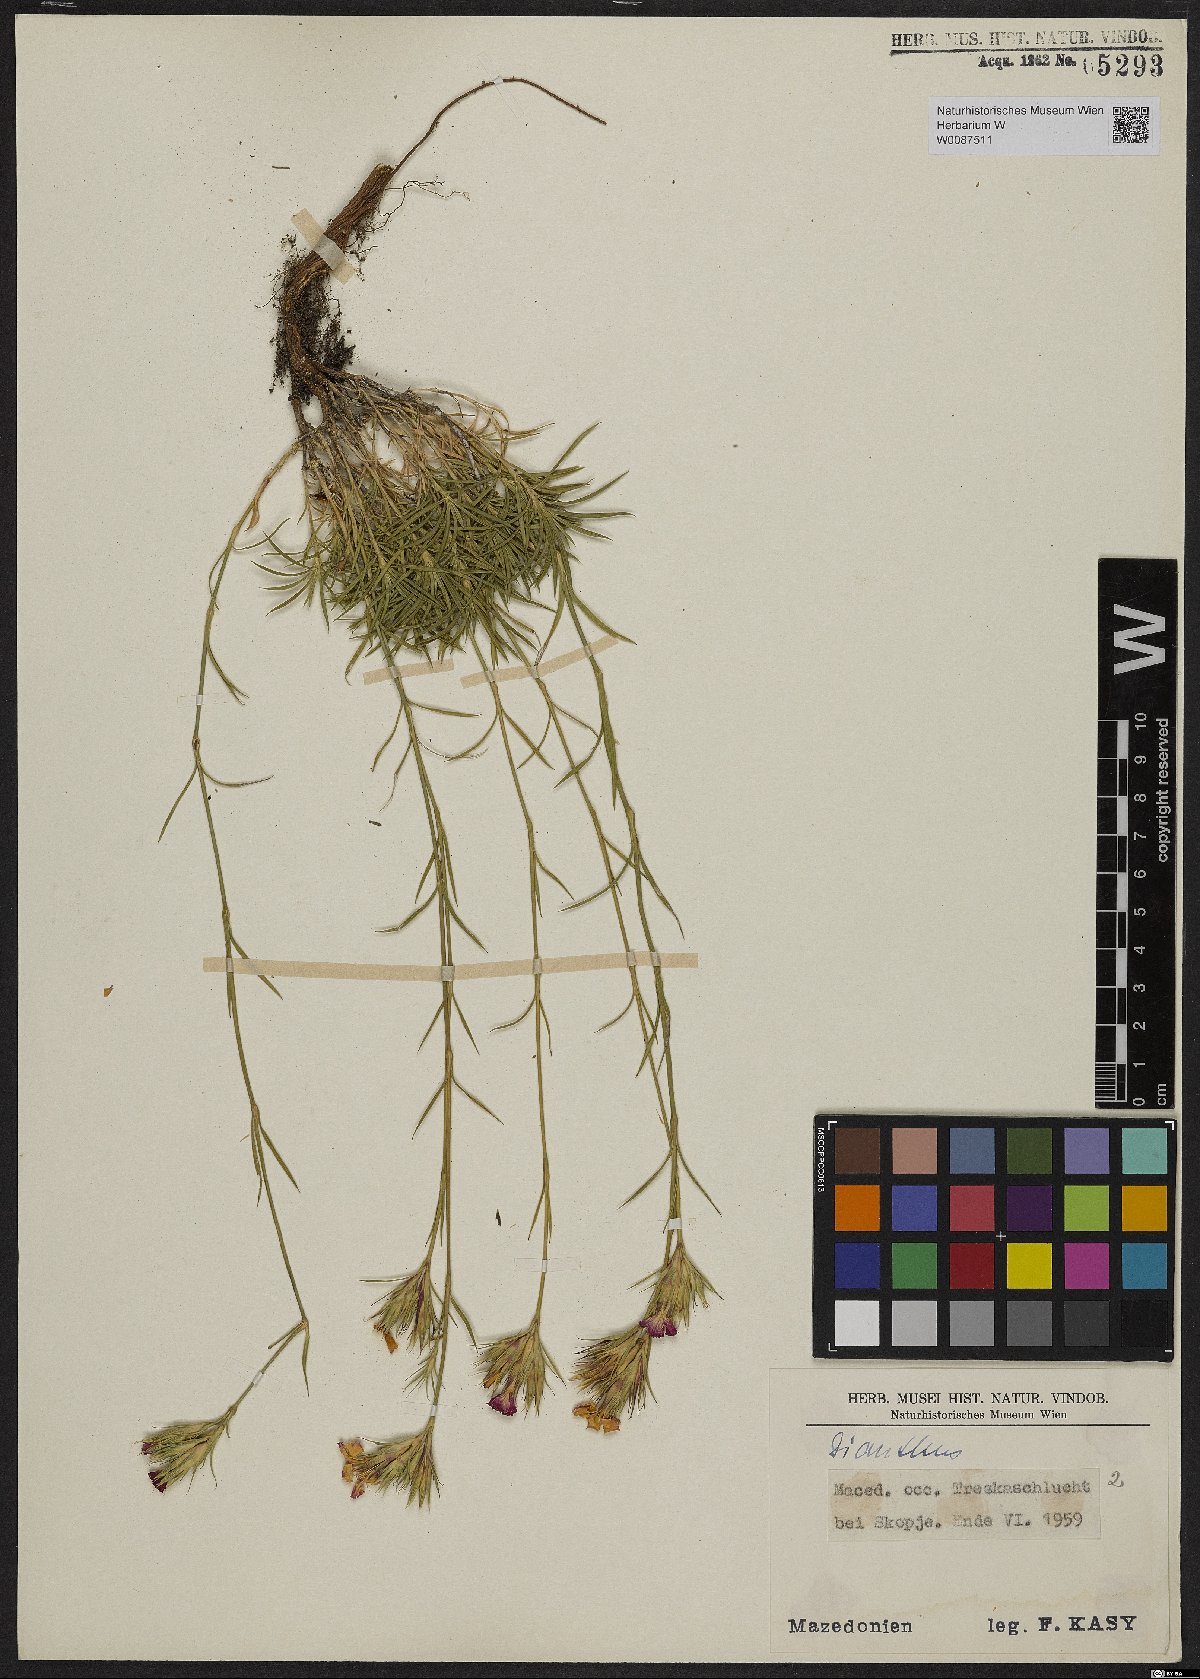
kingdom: Plantae
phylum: Tracheophyta
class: Magnoliopsida
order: Caryophyllales
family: Caryophyllaceae
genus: Dianthus
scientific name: Dianthus
